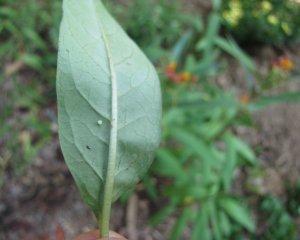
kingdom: Animalia
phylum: Arthropoda
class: Insecta
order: Lepidoptera
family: Nymphalidae
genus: Danaus
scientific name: Danaus plexippus
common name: Monarch
